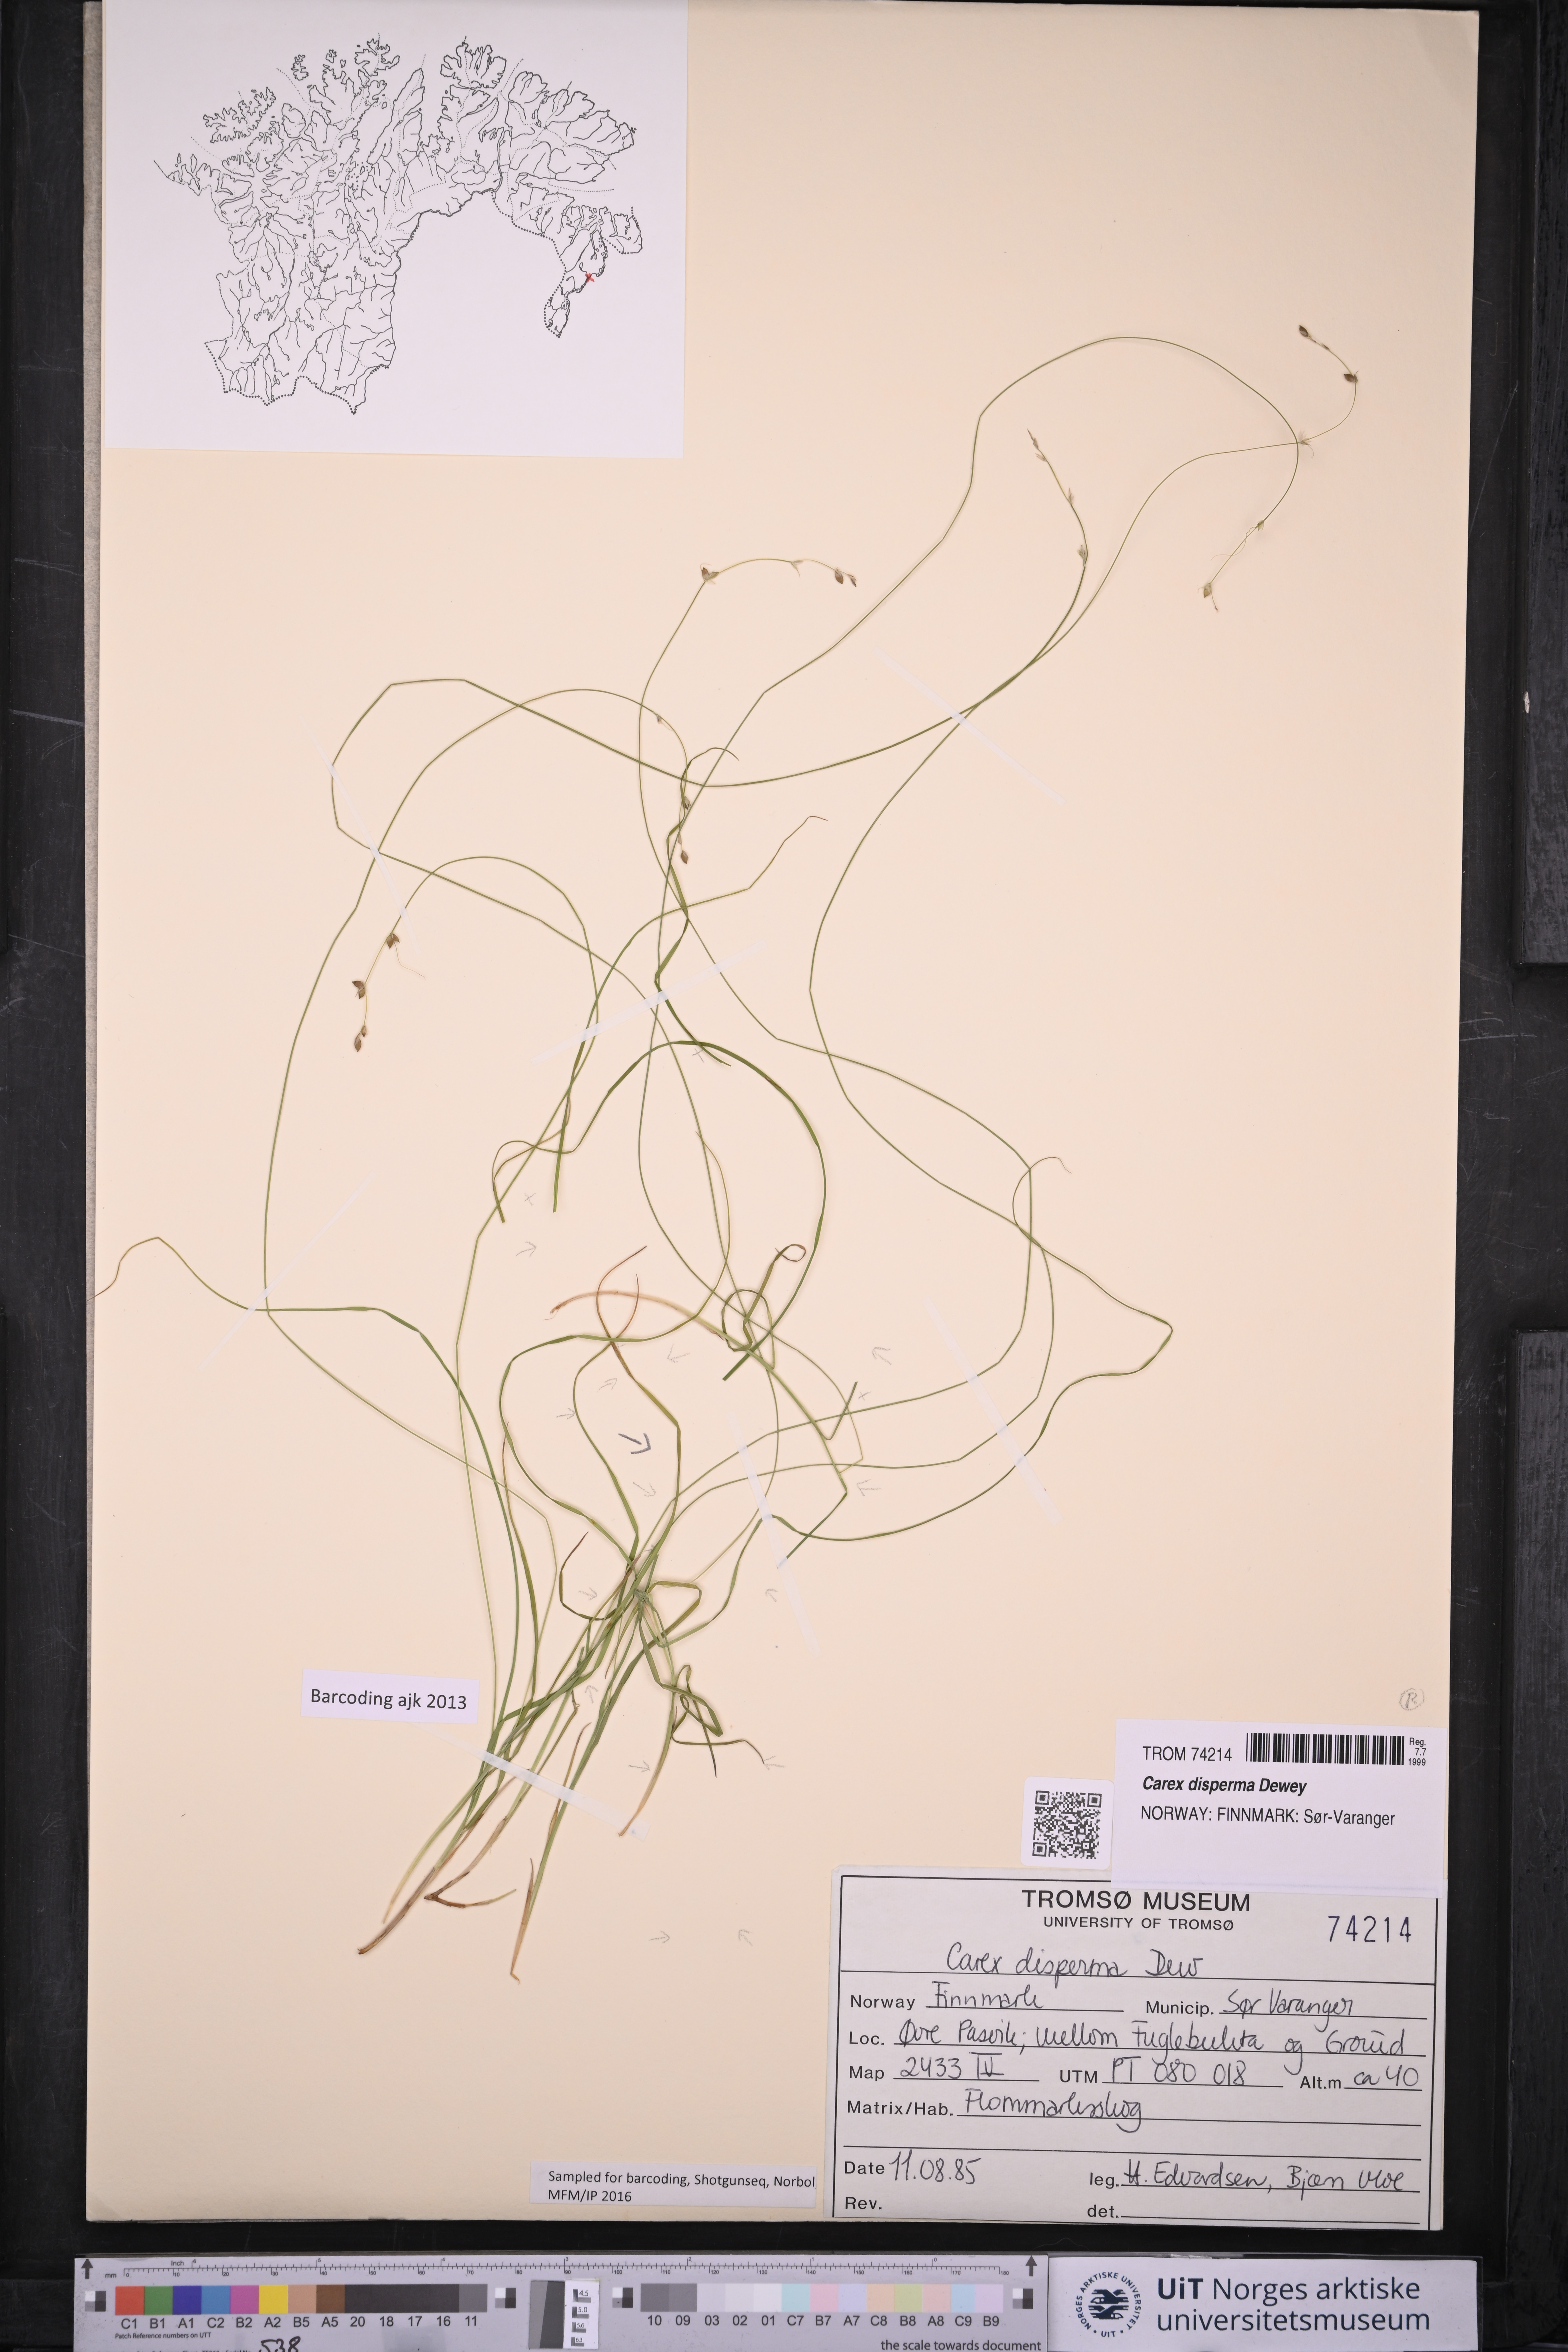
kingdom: Plantae
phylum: Tracheophyta
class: Liliopsida
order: Poales
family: Cyperaceae
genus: Carex
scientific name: Carex disperma
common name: Short-leaved sedge
